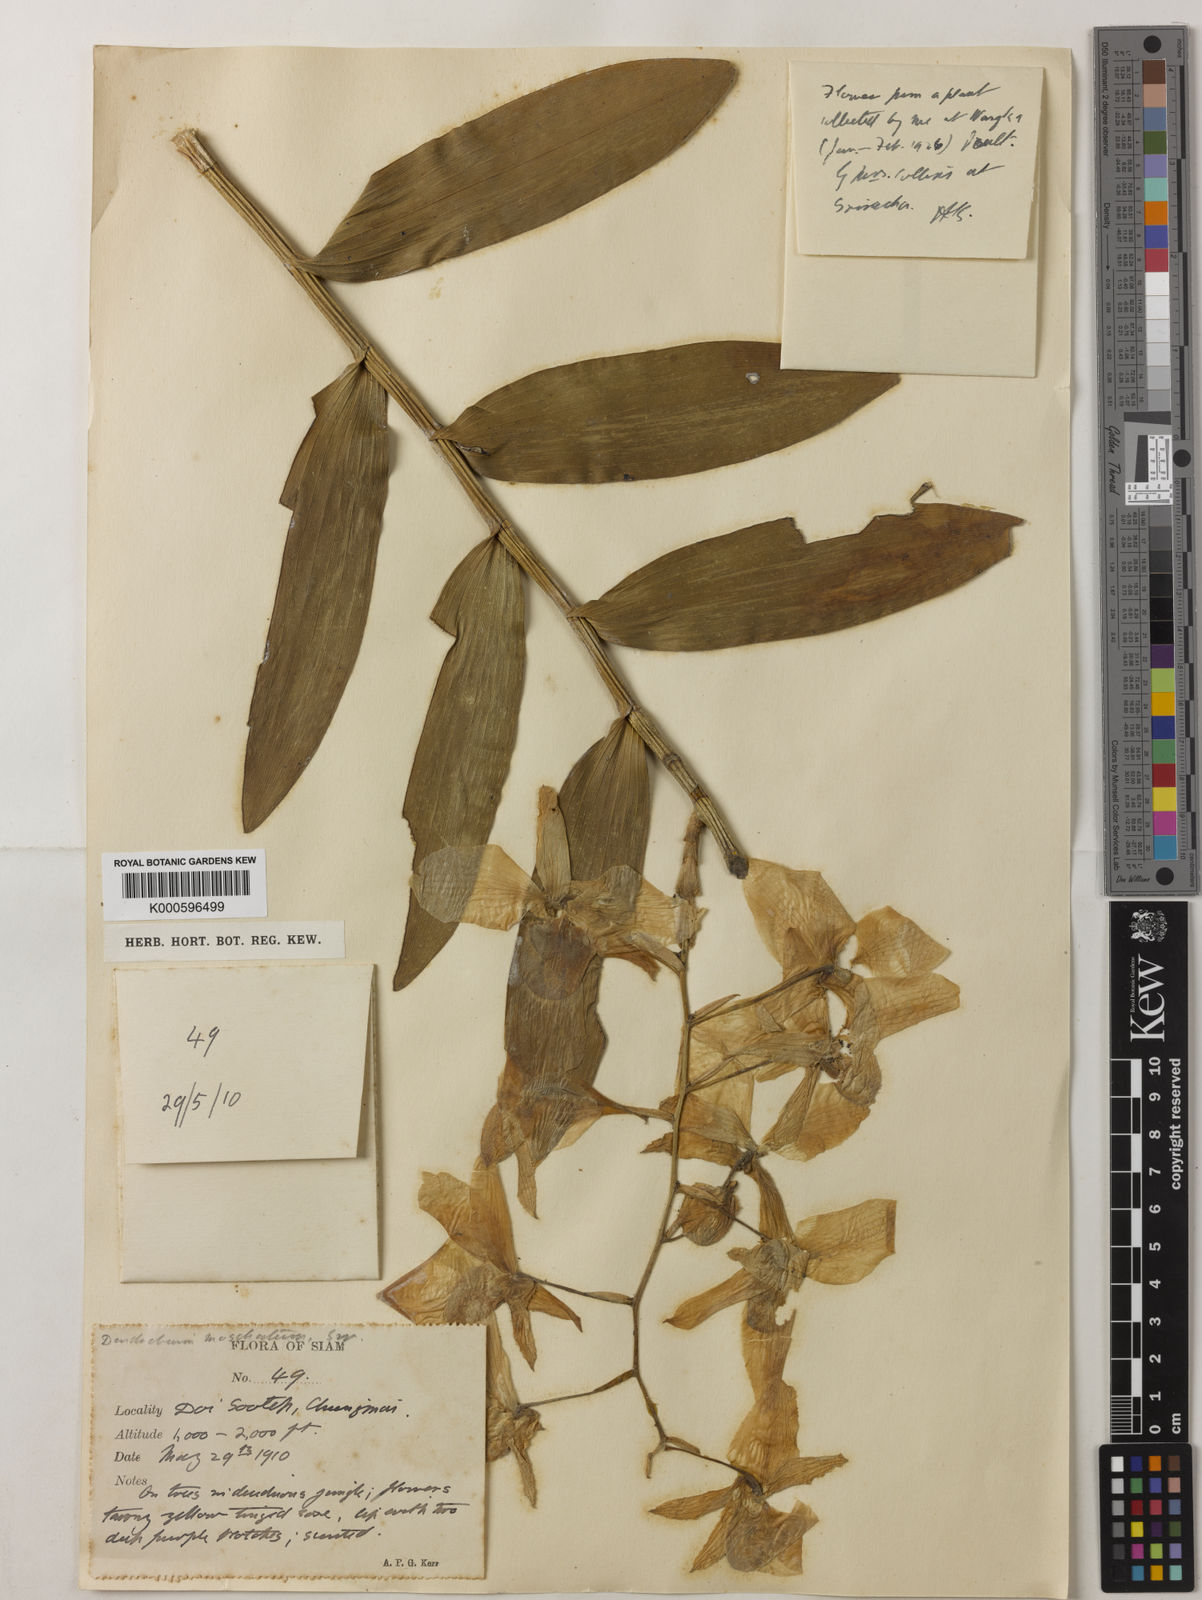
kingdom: Plantae
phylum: Tracheophyta
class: Liliopsida
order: Asparagales
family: Orchidaceae
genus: Dendrobium
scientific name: Dendrobium moschatum
